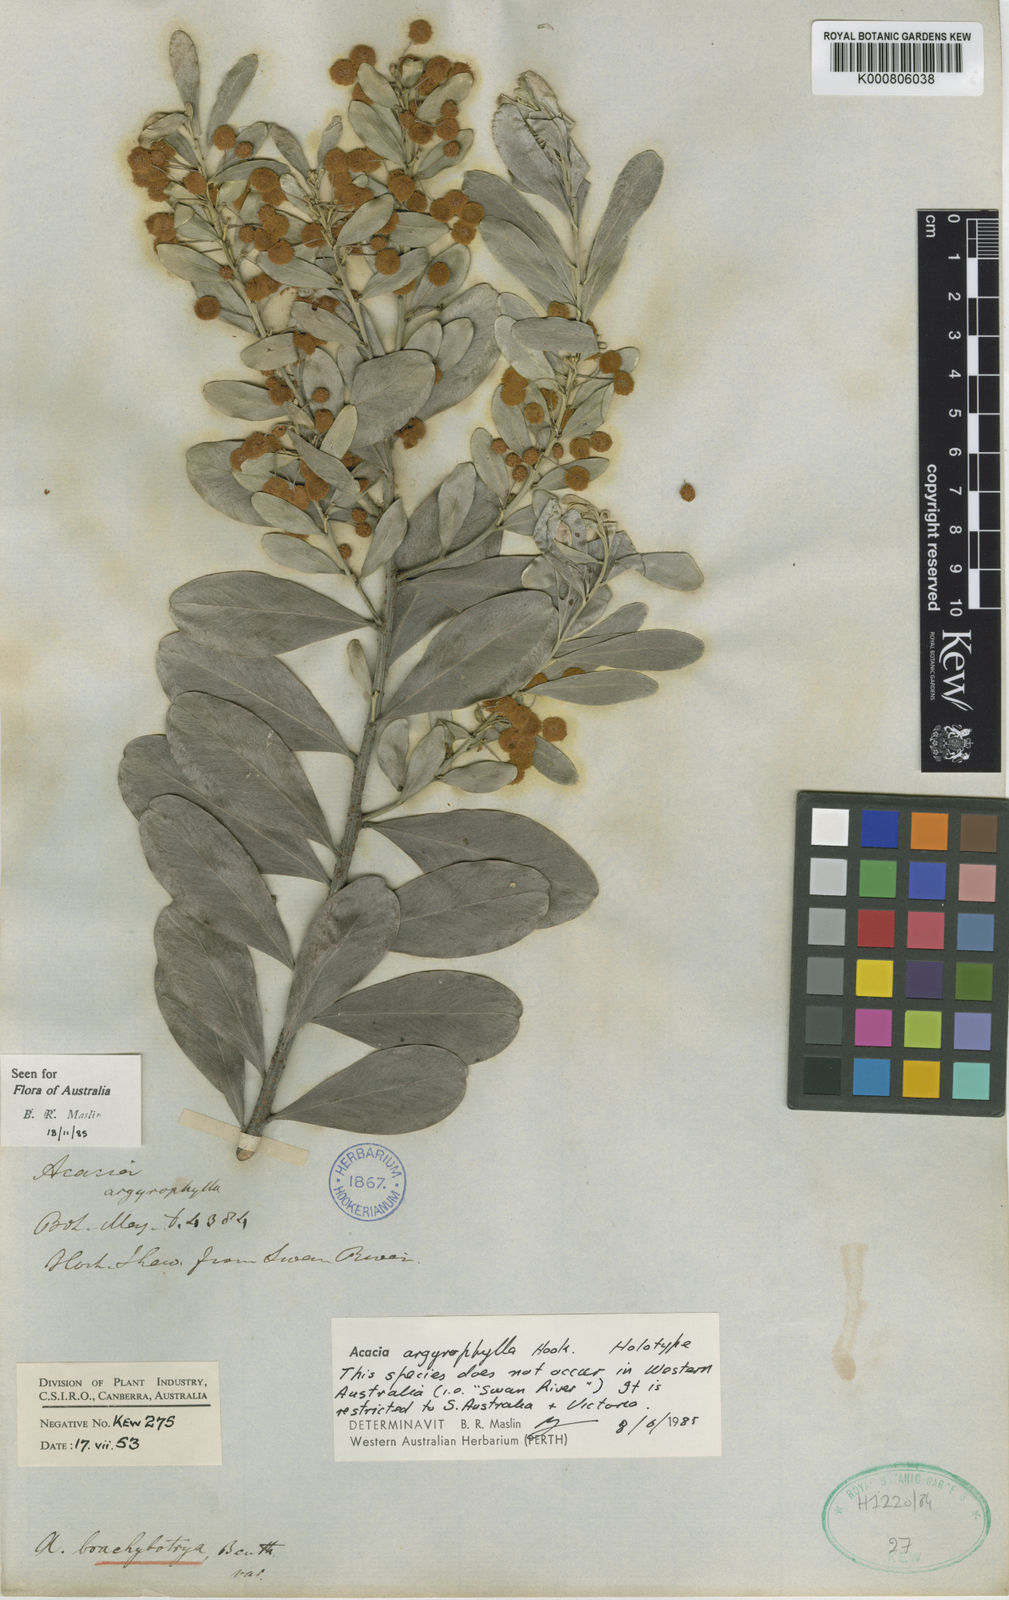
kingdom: Plantae
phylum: Tracheophyta
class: Magnoliopsida
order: Fabales
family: Fabaceae
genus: Acacia
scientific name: Acacia argyrophylla
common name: Silver mulga
